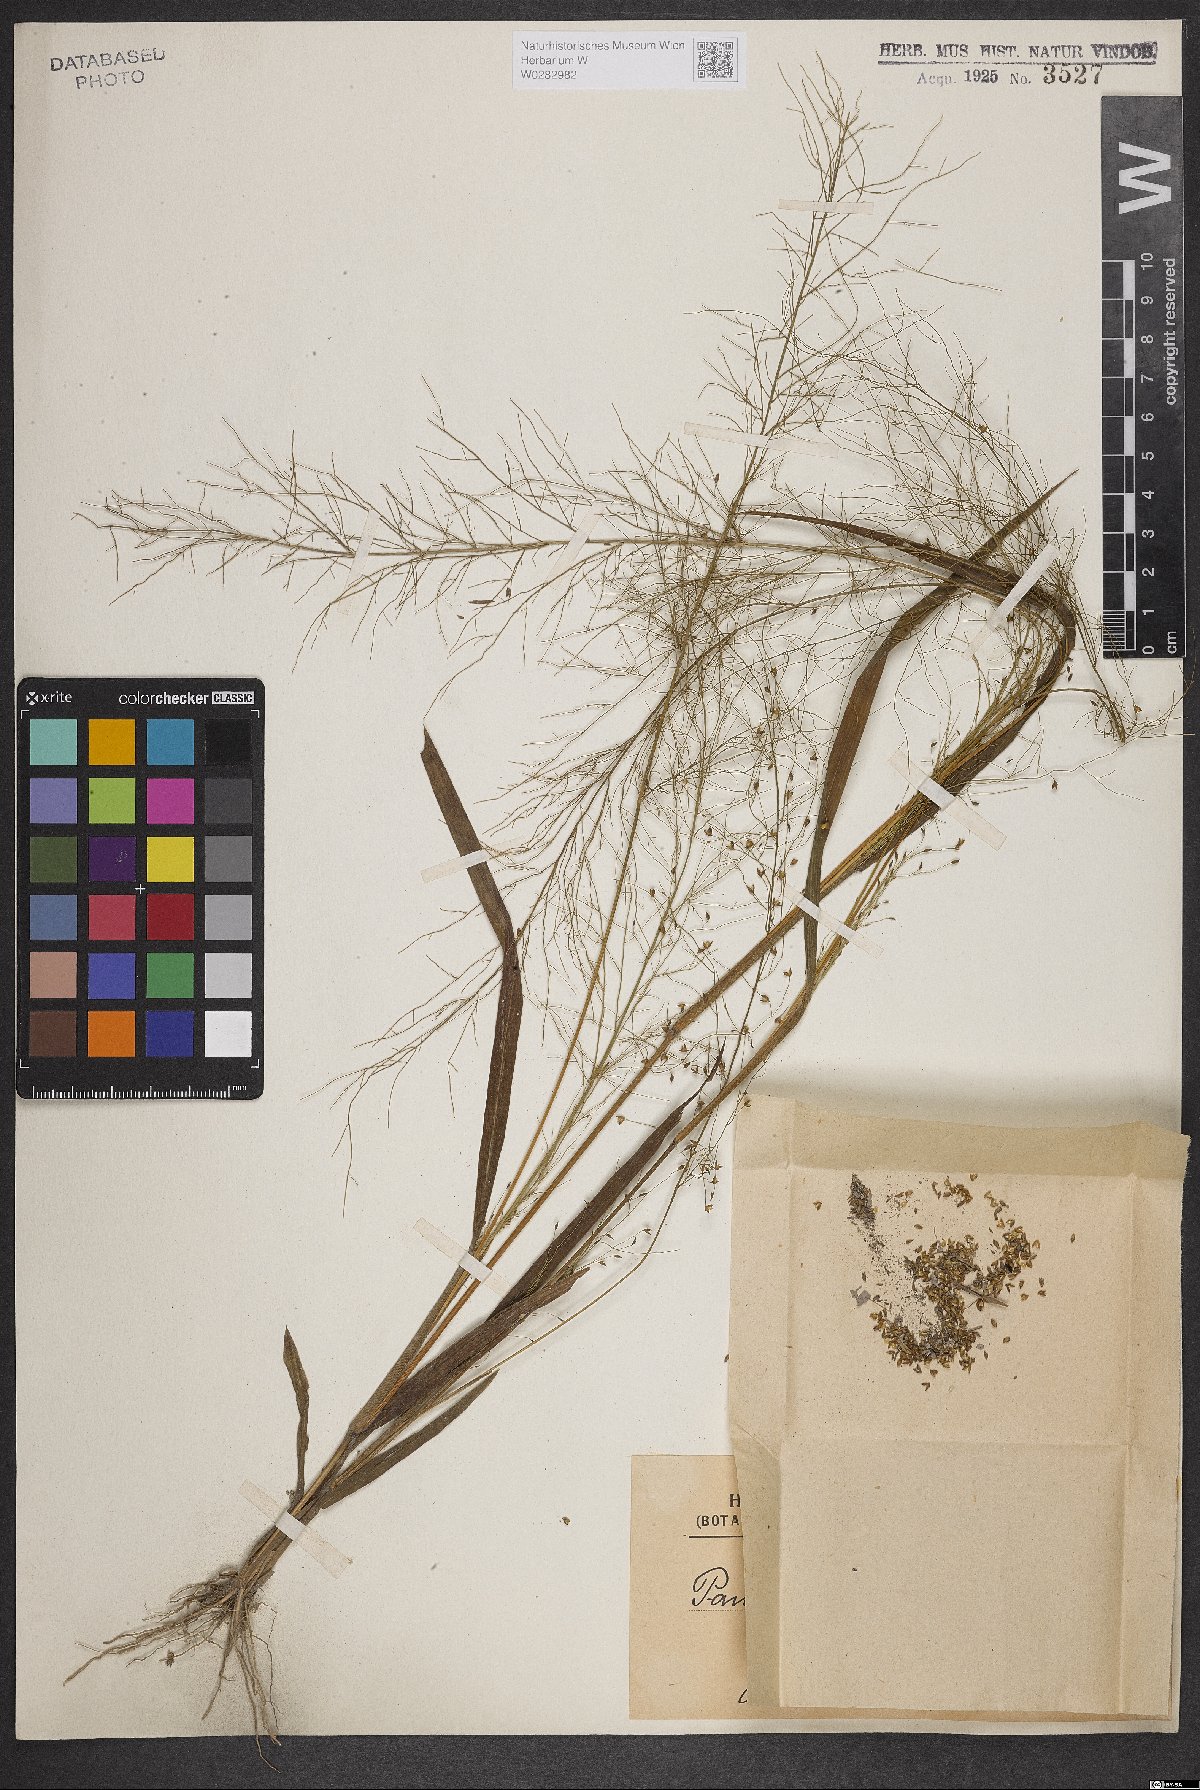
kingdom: Plantae
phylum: Tracheophyta
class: Liliopsida
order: Poales
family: Poaceae
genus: Panicum
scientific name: Panicum peladoense
